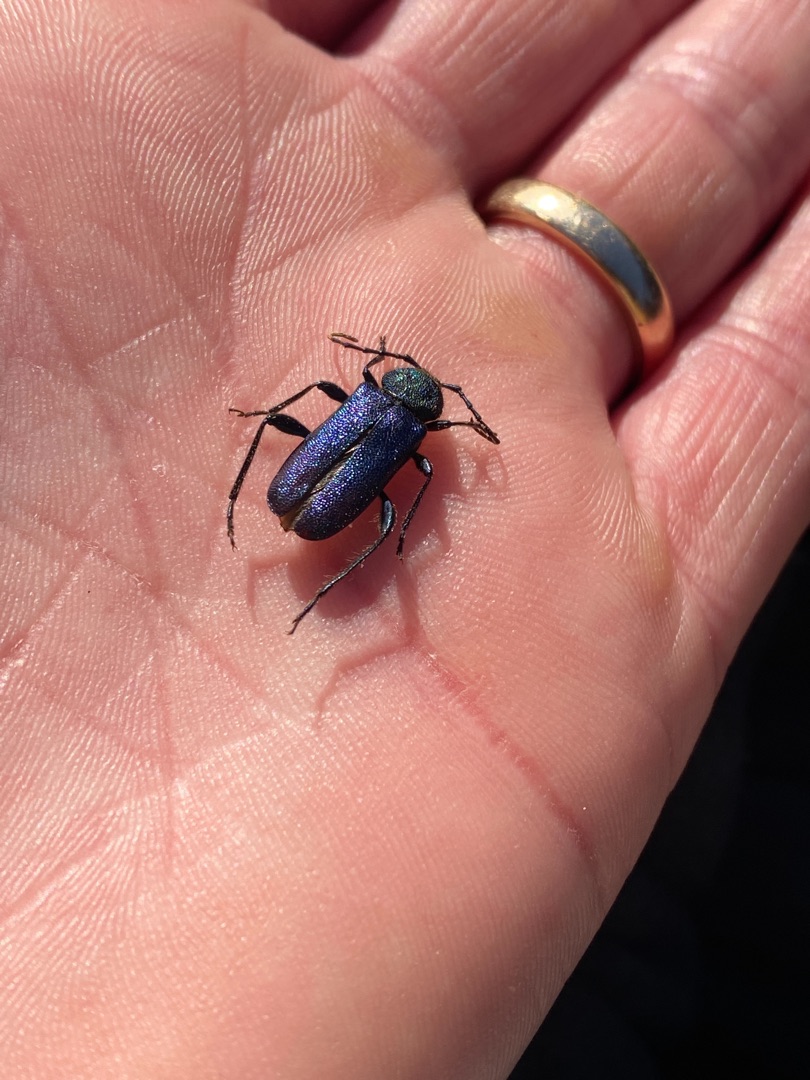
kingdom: Animalia
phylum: Arthropoda
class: Insecta
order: Coleoptera
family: Cerambycidae
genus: Agapanthia
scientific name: Agapanthia violacea
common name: Violbuk
